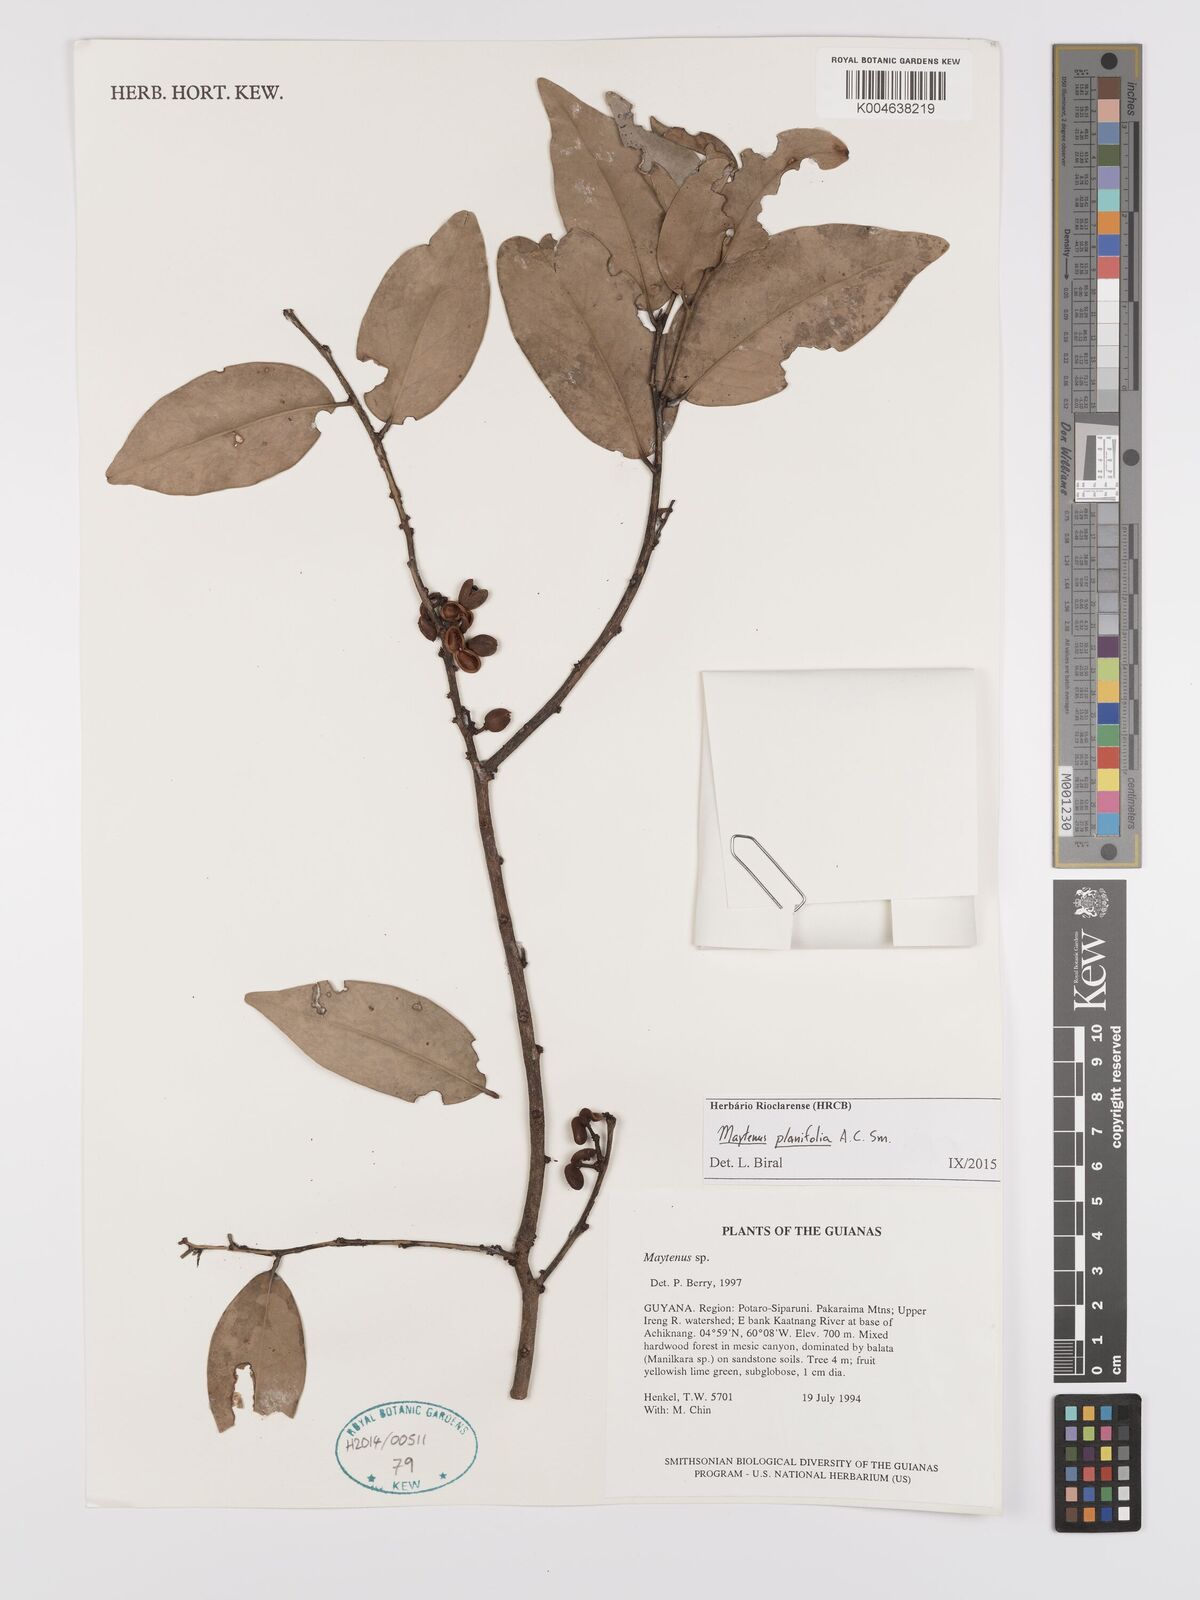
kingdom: Plantae
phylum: Tracheophyta
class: Magnoliopsida
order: Celastrales
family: Celastraceae
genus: Monteverdia
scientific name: Monteverdia planifolia
